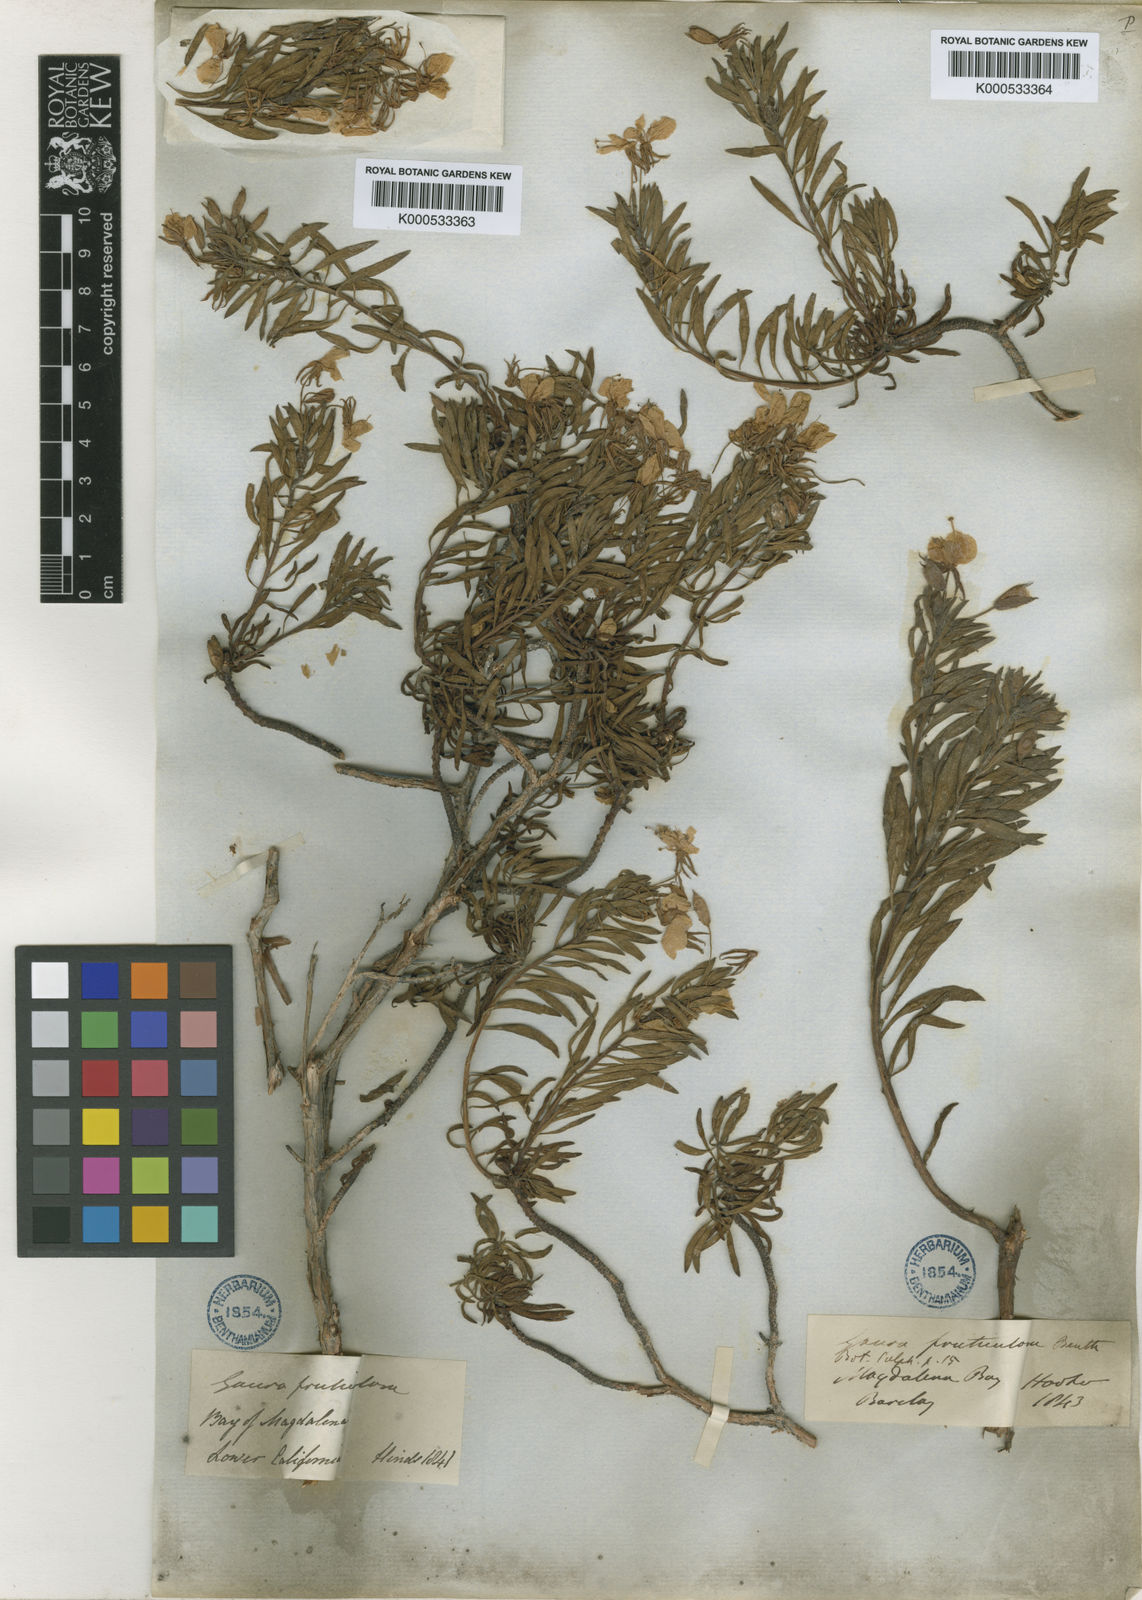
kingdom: Plantae
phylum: Tracheophyta
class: Magnoliopsida
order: Myrtales
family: Onagraceae
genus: Gongylocarpus
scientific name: Gongylocarpus fruticulosus
